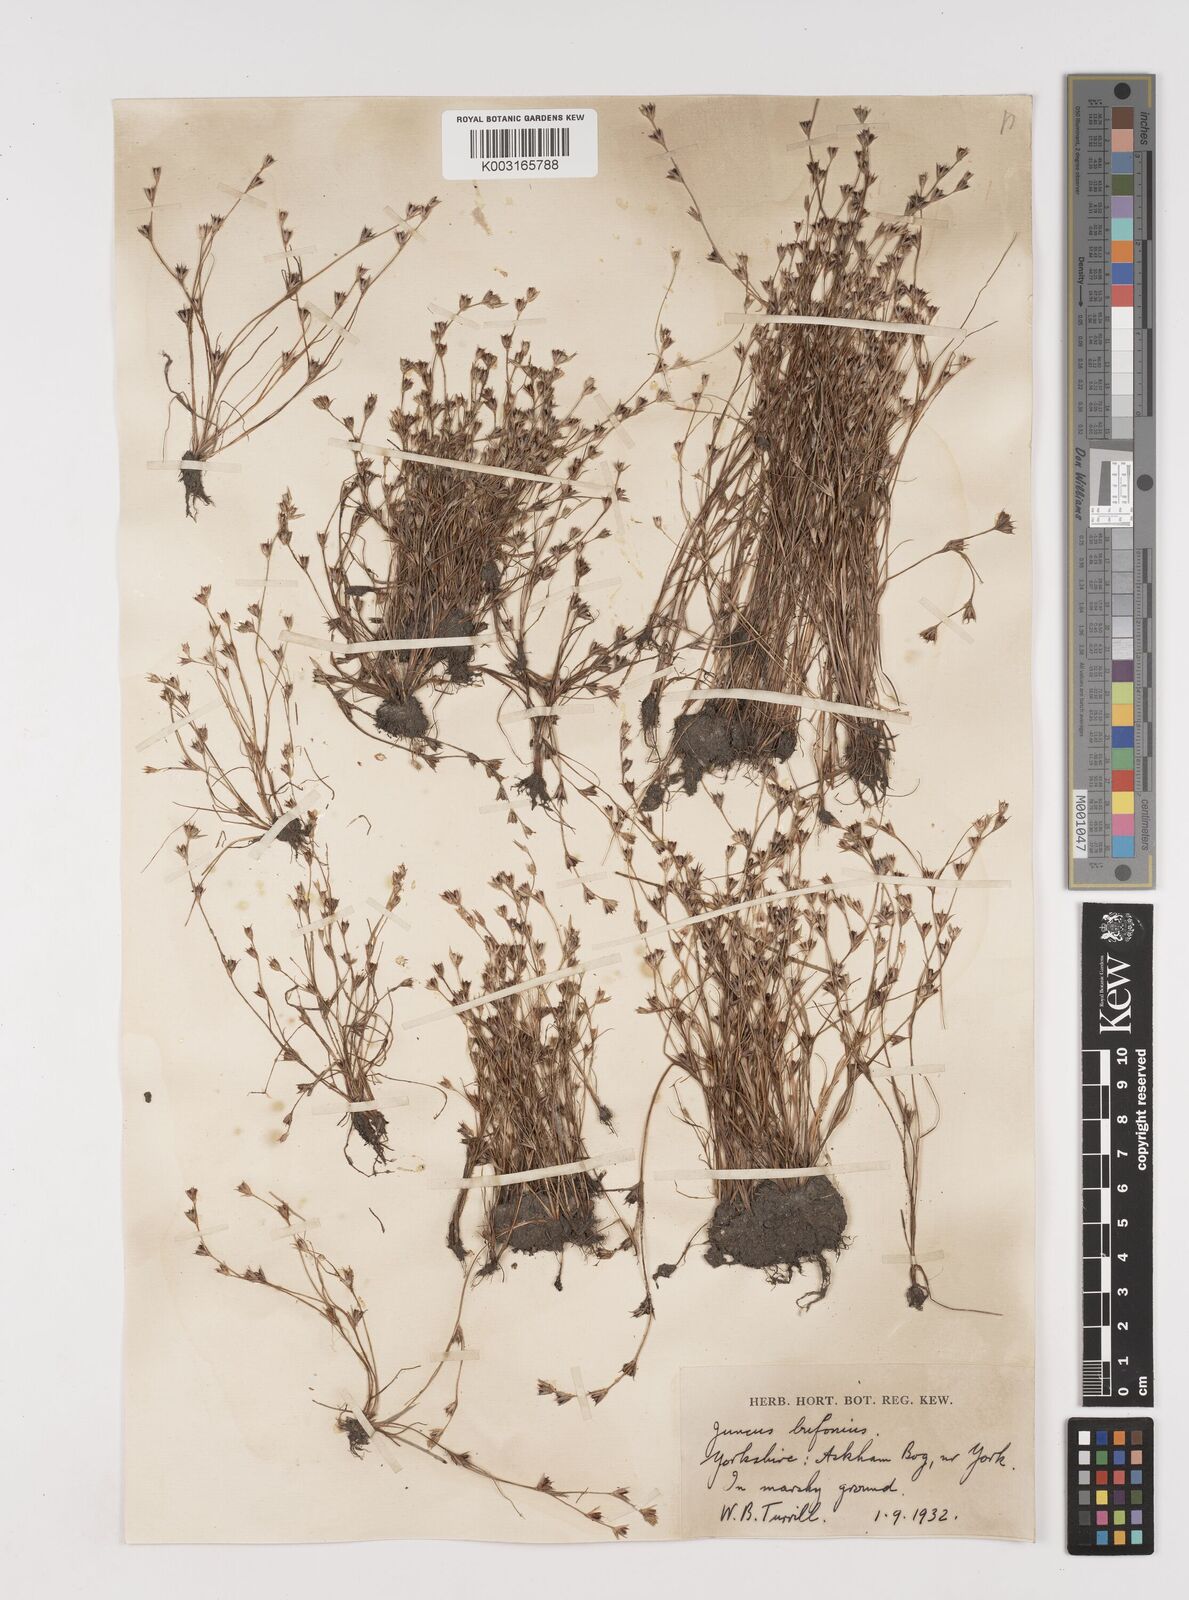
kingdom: Plantae
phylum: Tracheophyta
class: Liliopsida
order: Poales
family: Juncaceae
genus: Juncus
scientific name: Juncus bufonius
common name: Toad rush
